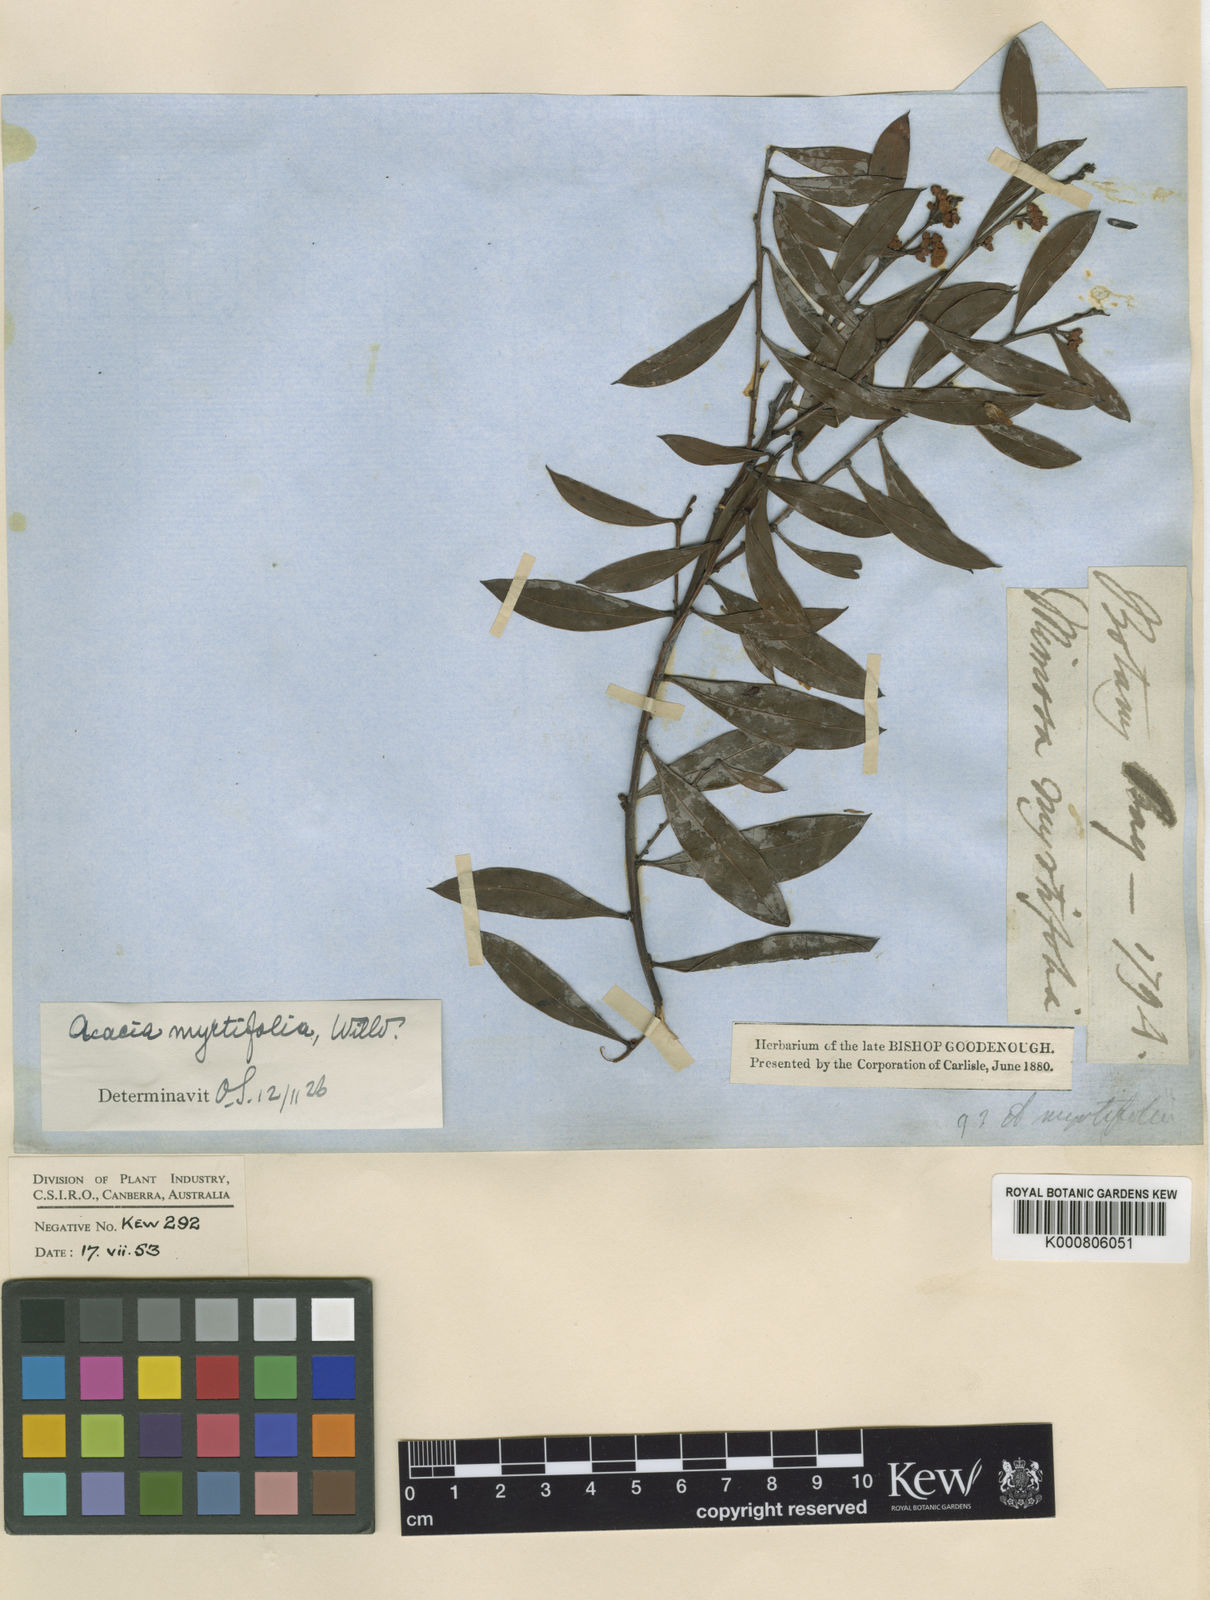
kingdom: Plantae
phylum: Tracheophyta
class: Magnoliopsida
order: Fabales
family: Fabaceae
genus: Acacia
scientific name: Acacia myrtifolia
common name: Myrtle wattle
